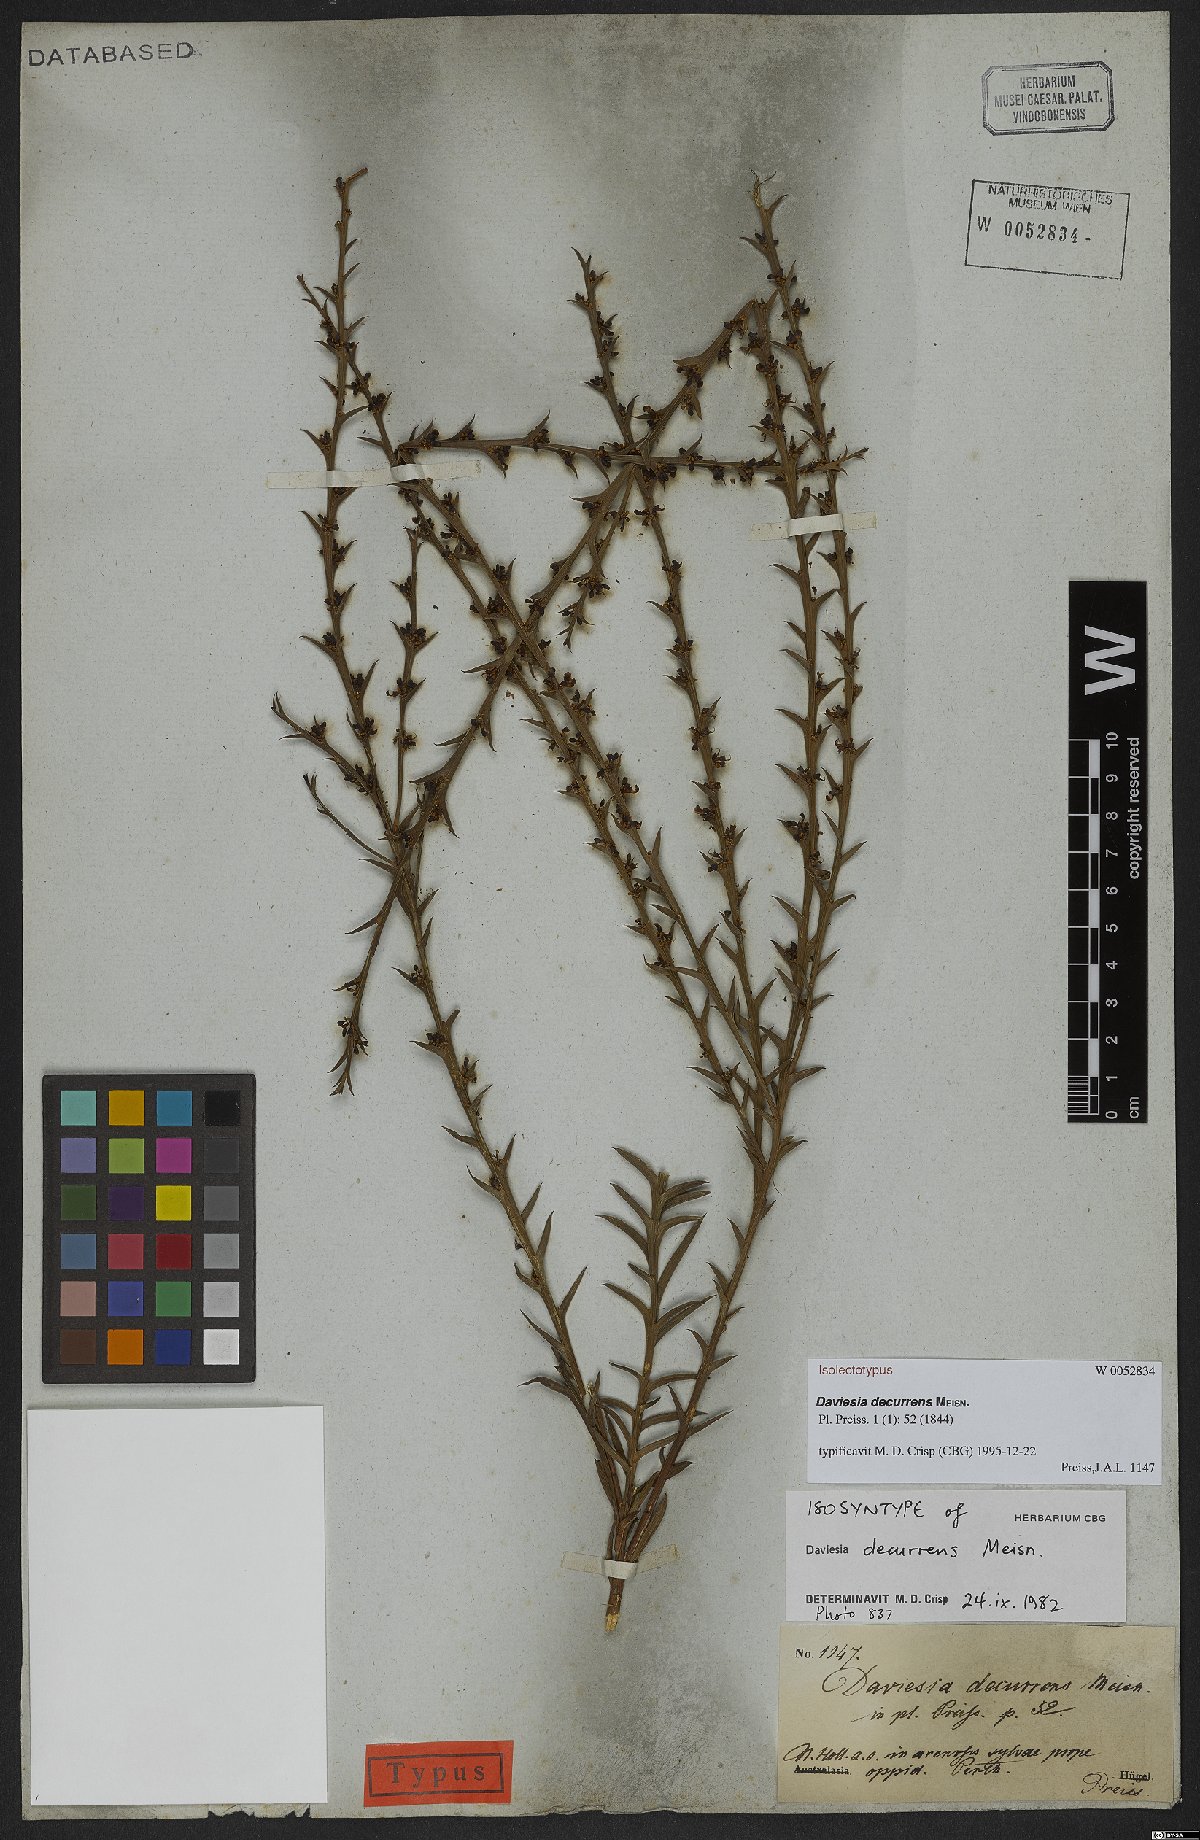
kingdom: Plantae
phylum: Tracheophyta
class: Magnoliopsida
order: Fabales
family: Fabaceae
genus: Daviesia
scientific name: Daviesia decurrens
